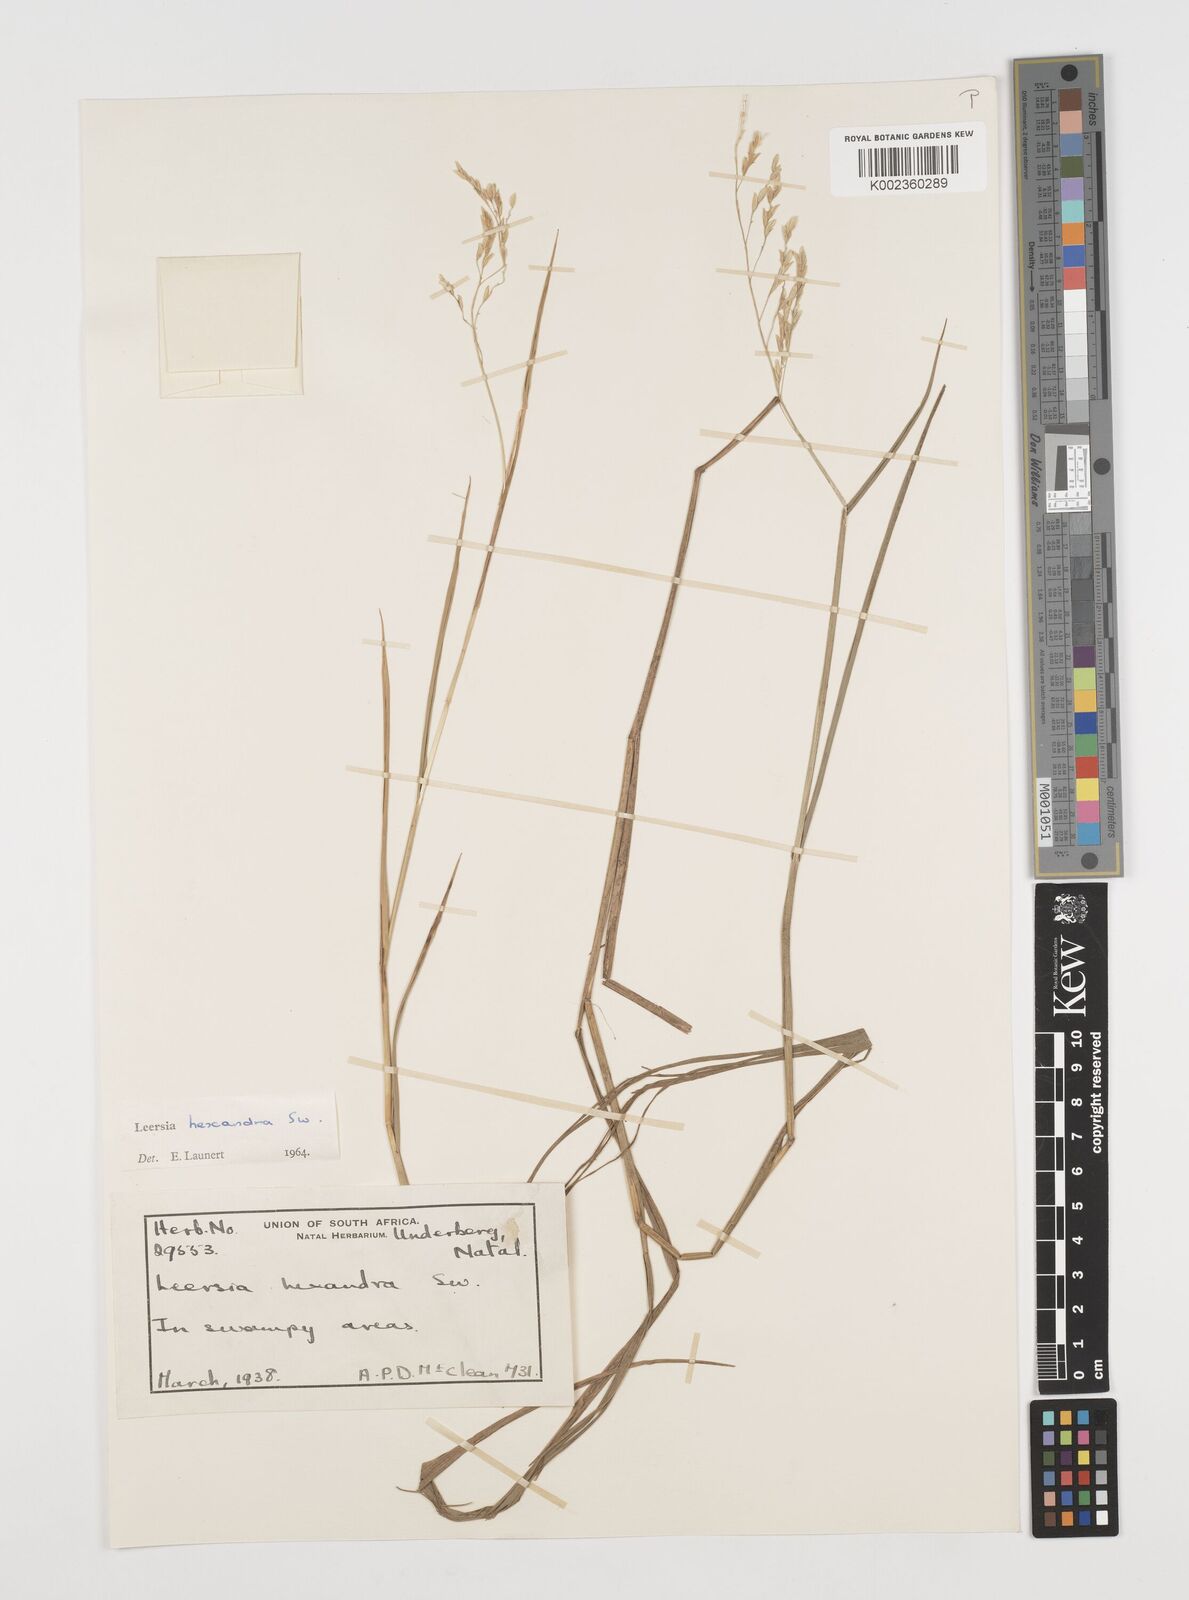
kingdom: Plantae
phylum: Tracheophyta
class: Liliopsida
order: Poales
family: Poaceae
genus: Leersia
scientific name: Leersia hexandra
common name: Southern cut grass
